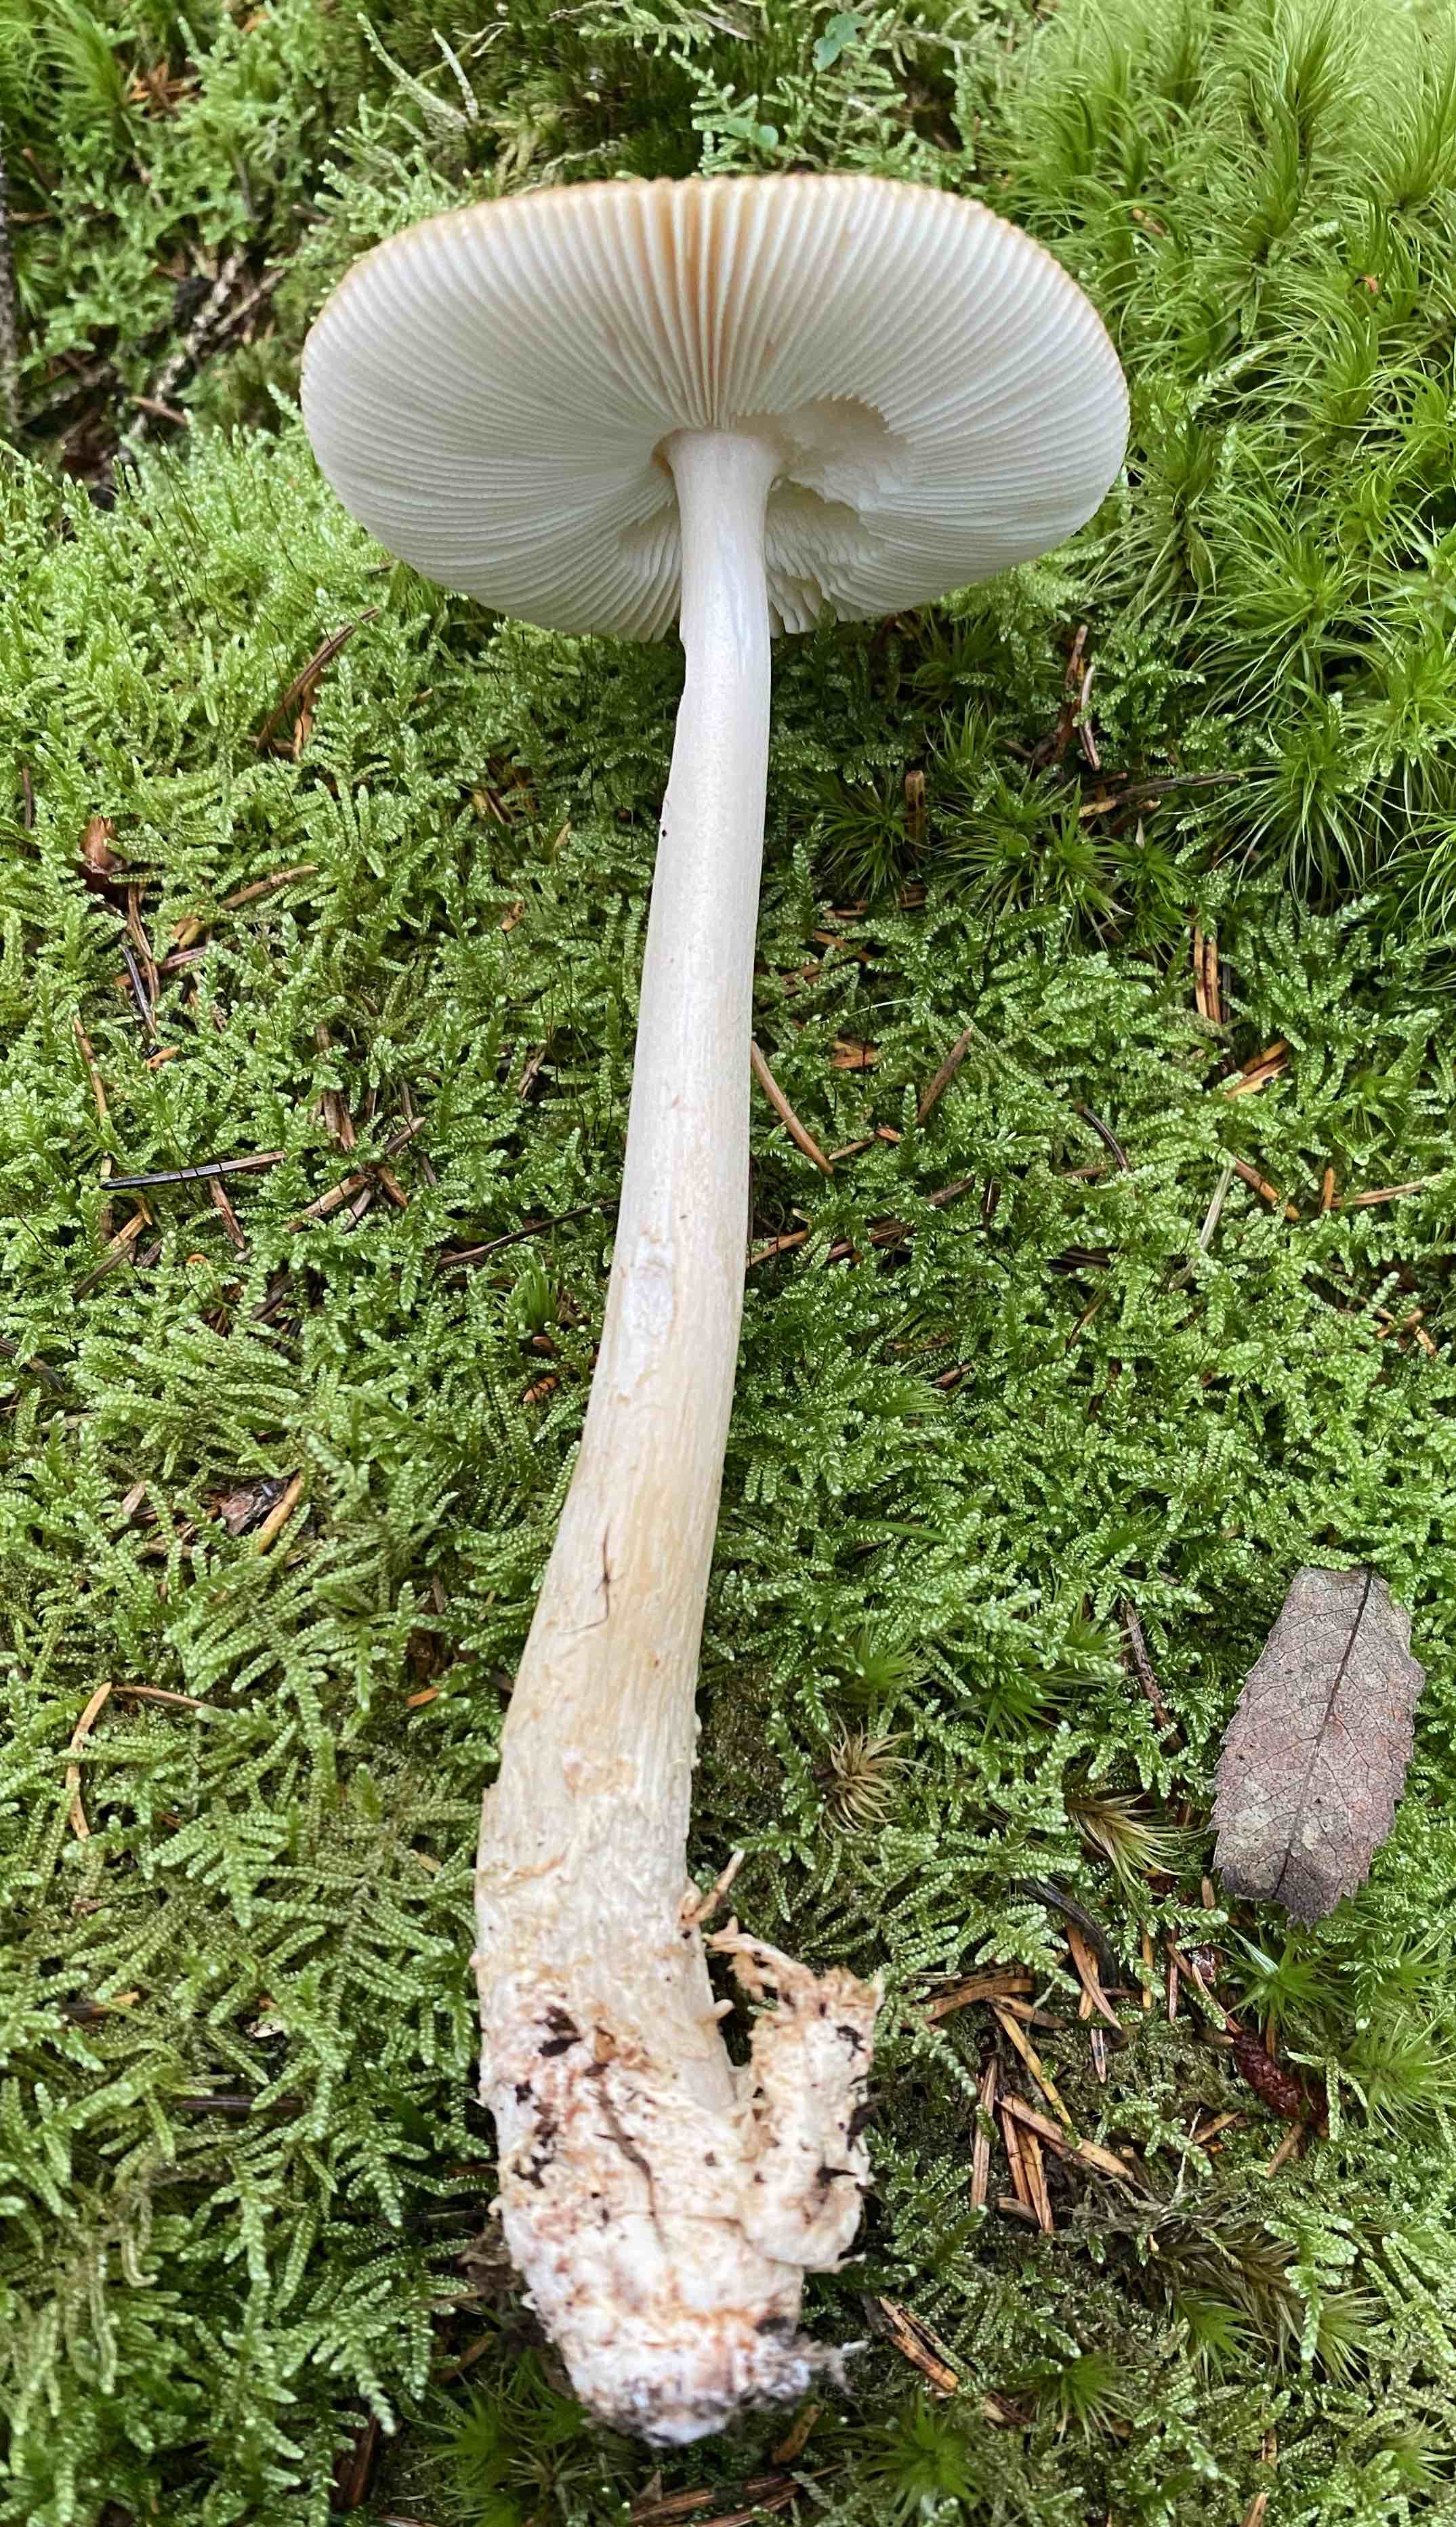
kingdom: Fungi
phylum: Basidiomycota
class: Agaricomycetes
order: Agaricales
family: Amanitaceae
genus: Amanita
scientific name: Amanita fulva
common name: brun kam-fluesvamp
